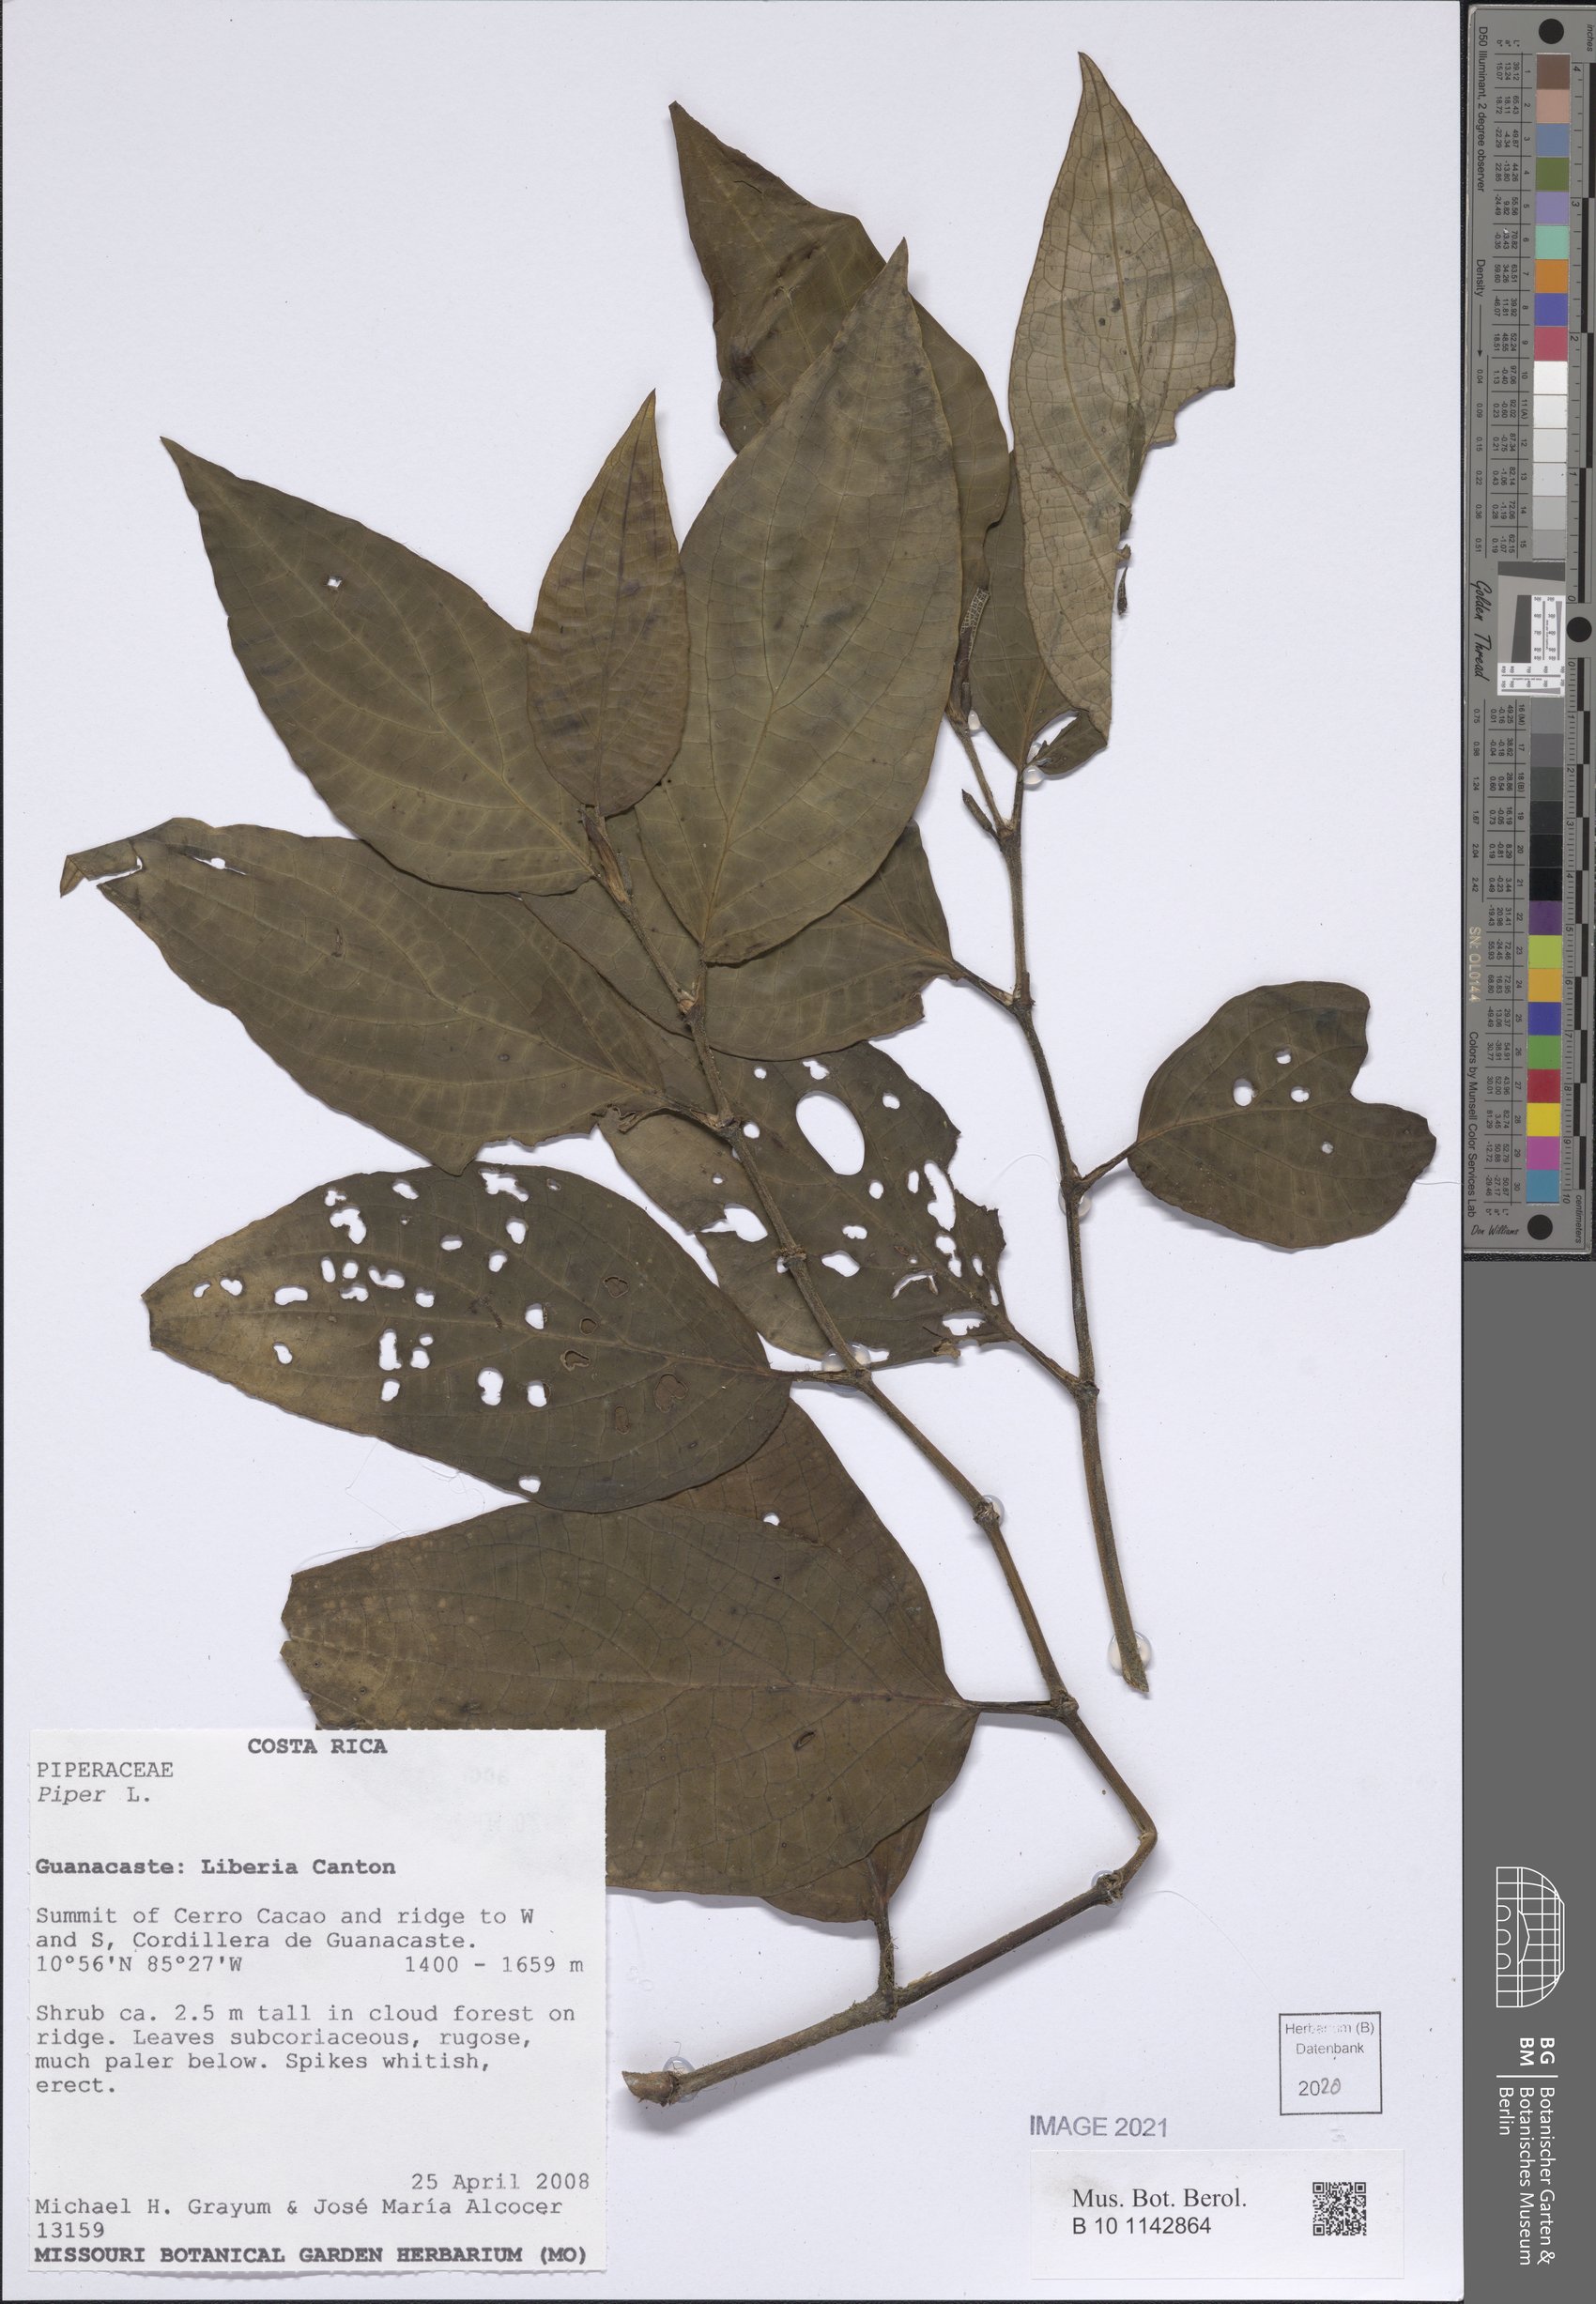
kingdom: Plantae
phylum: Tracheophyta
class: Magnoliopsida
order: Myrtales
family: Melastomataceae
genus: Miconia
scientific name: Miconia
